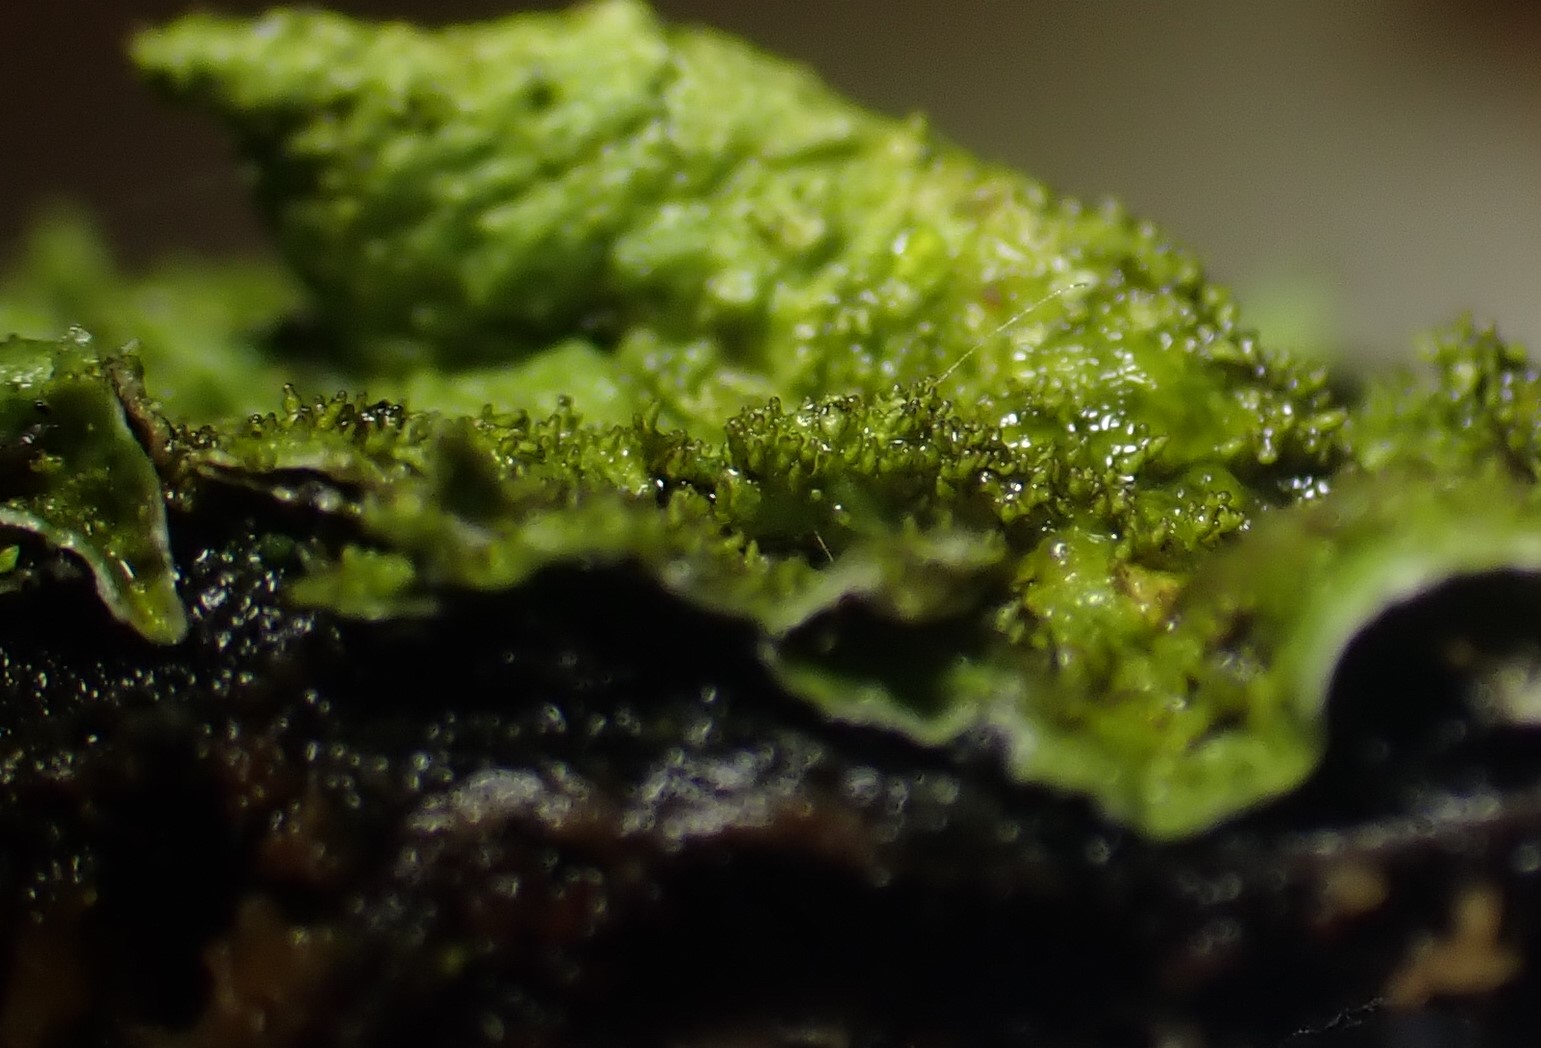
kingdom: Fungi
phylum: Ascomycota
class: Lecanoromycetes
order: Lecanorales
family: Parmeliaceae
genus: Melanelixia
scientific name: Melanelixia glabratula
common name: glinsende skållav
